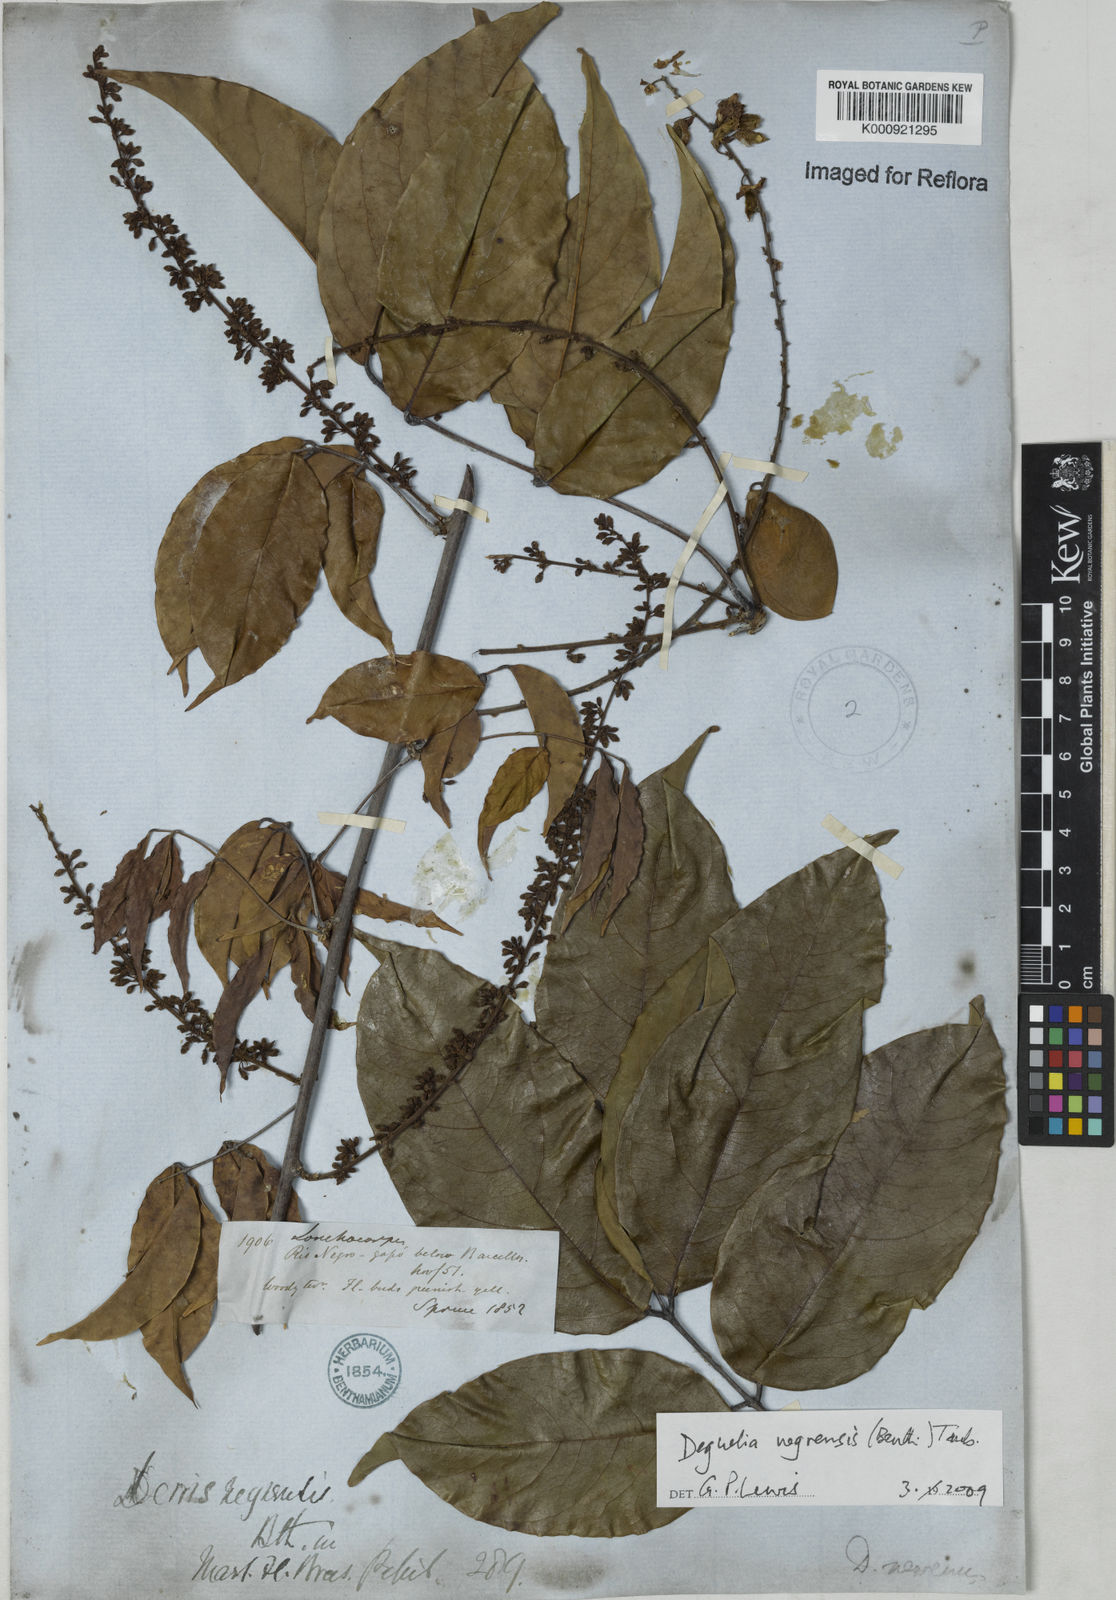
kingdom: Plantae
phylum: Tracheophyta
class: Magnoliopsida
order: Fabales
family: Fabaceae
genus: Deguelia
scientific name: Deguelia negrensis
